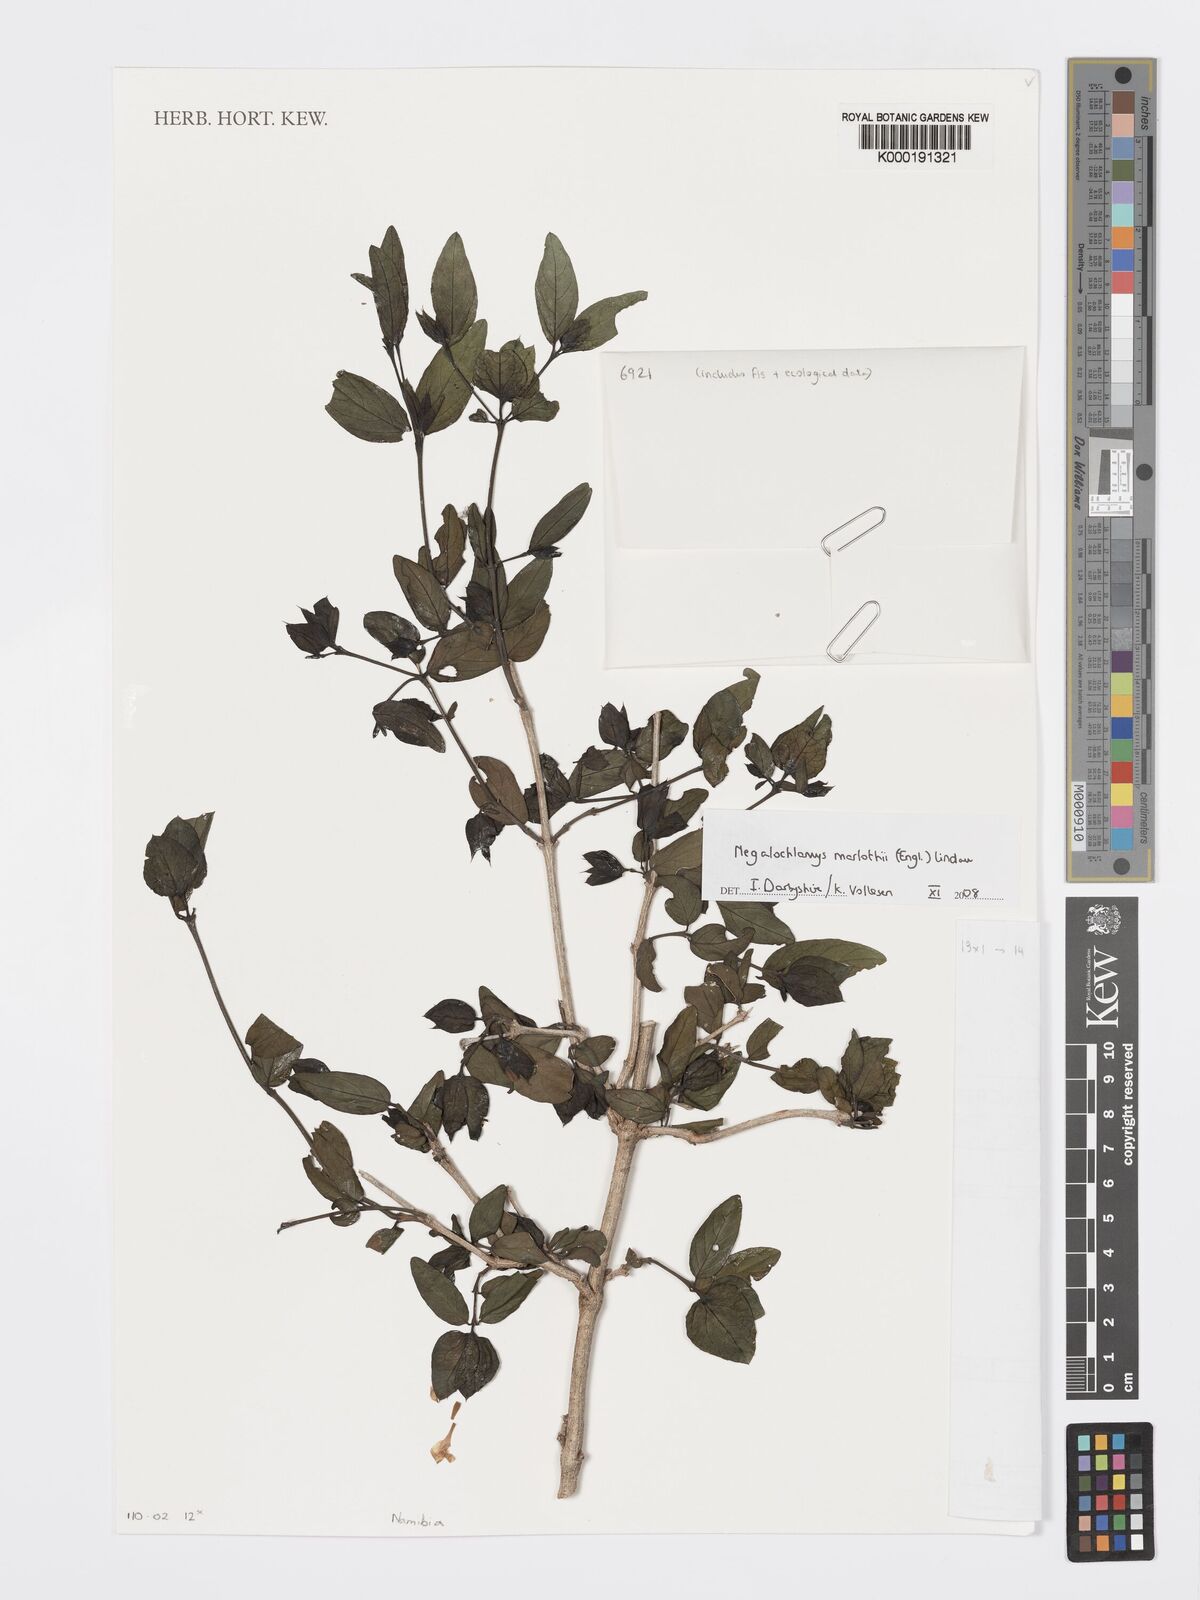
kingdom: Plantae
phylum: Tracheophyta
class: Magnoliopsida
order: Lamiales
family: Acanthaceae
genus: Megalochlamys
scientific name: Megalochlamys marlothii
